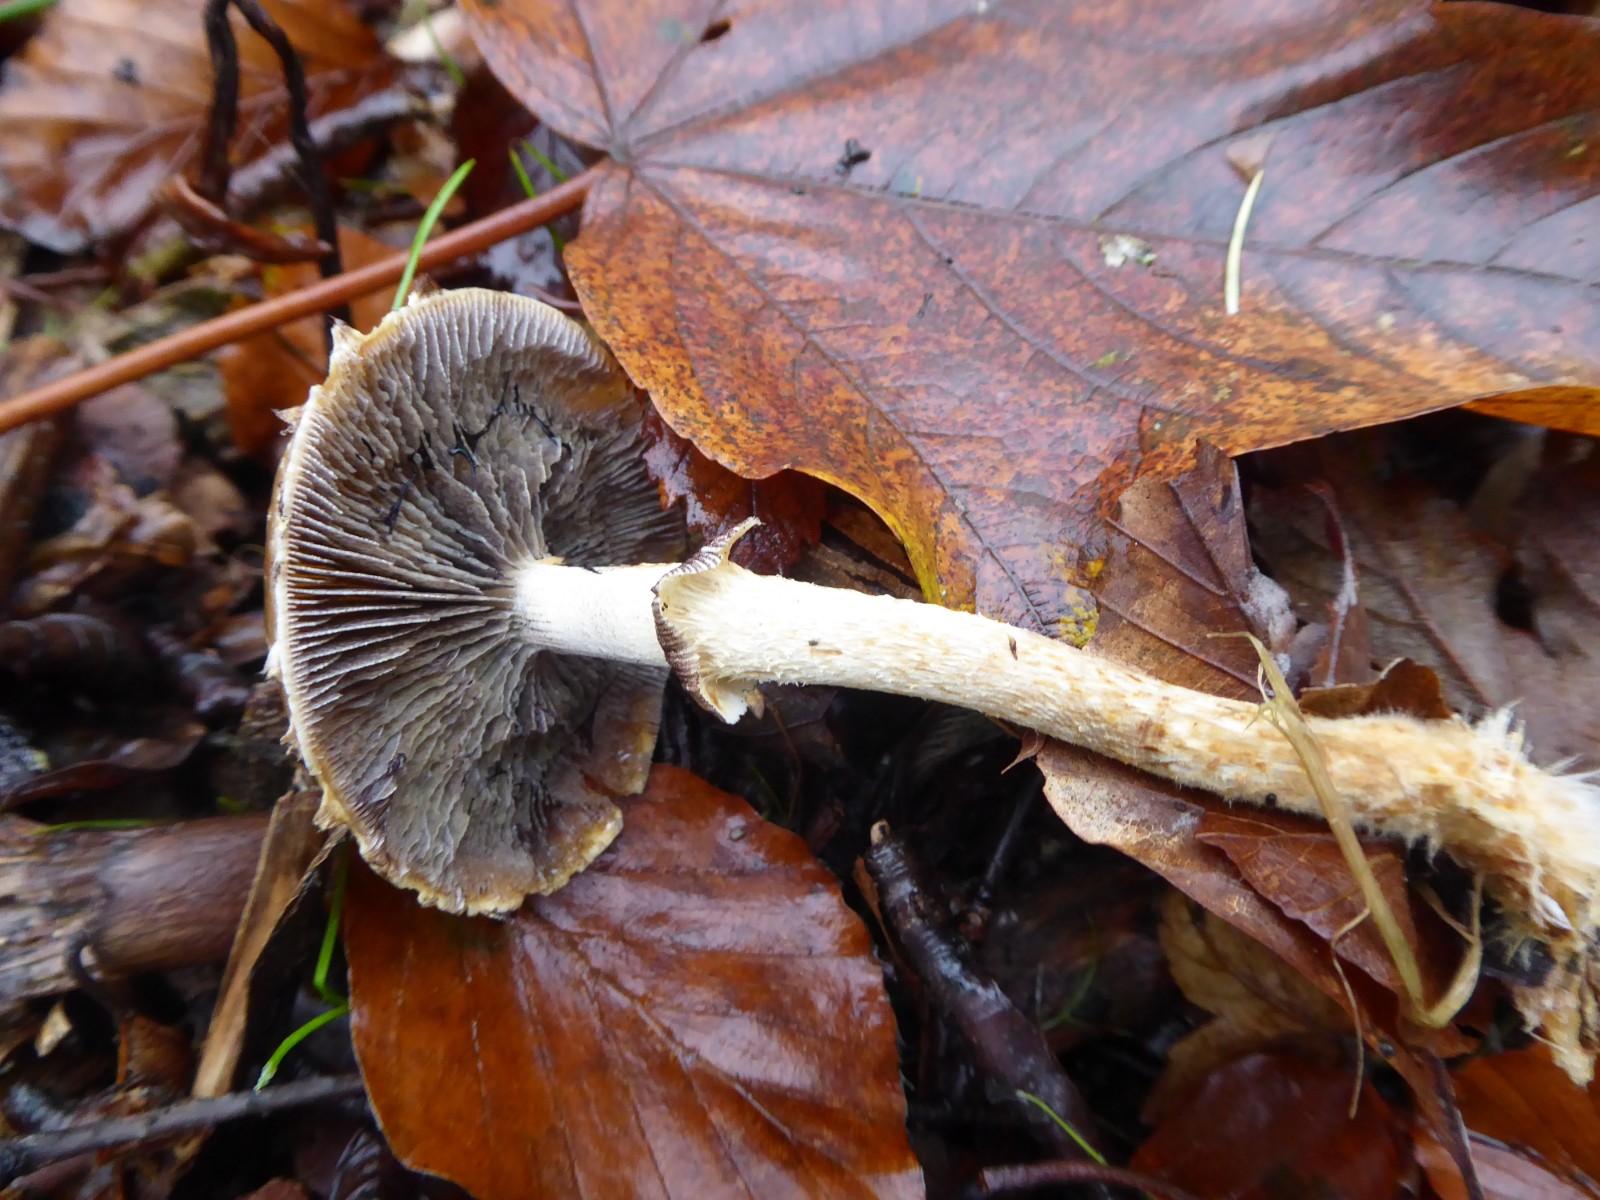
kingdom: Fungi
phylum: Basidiomycota
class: Agaricomycetes
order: Agaricales
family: Strophariaceae
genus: Leratiomyces
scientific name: Leratiomyces squamosus
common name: skællet bredblad
